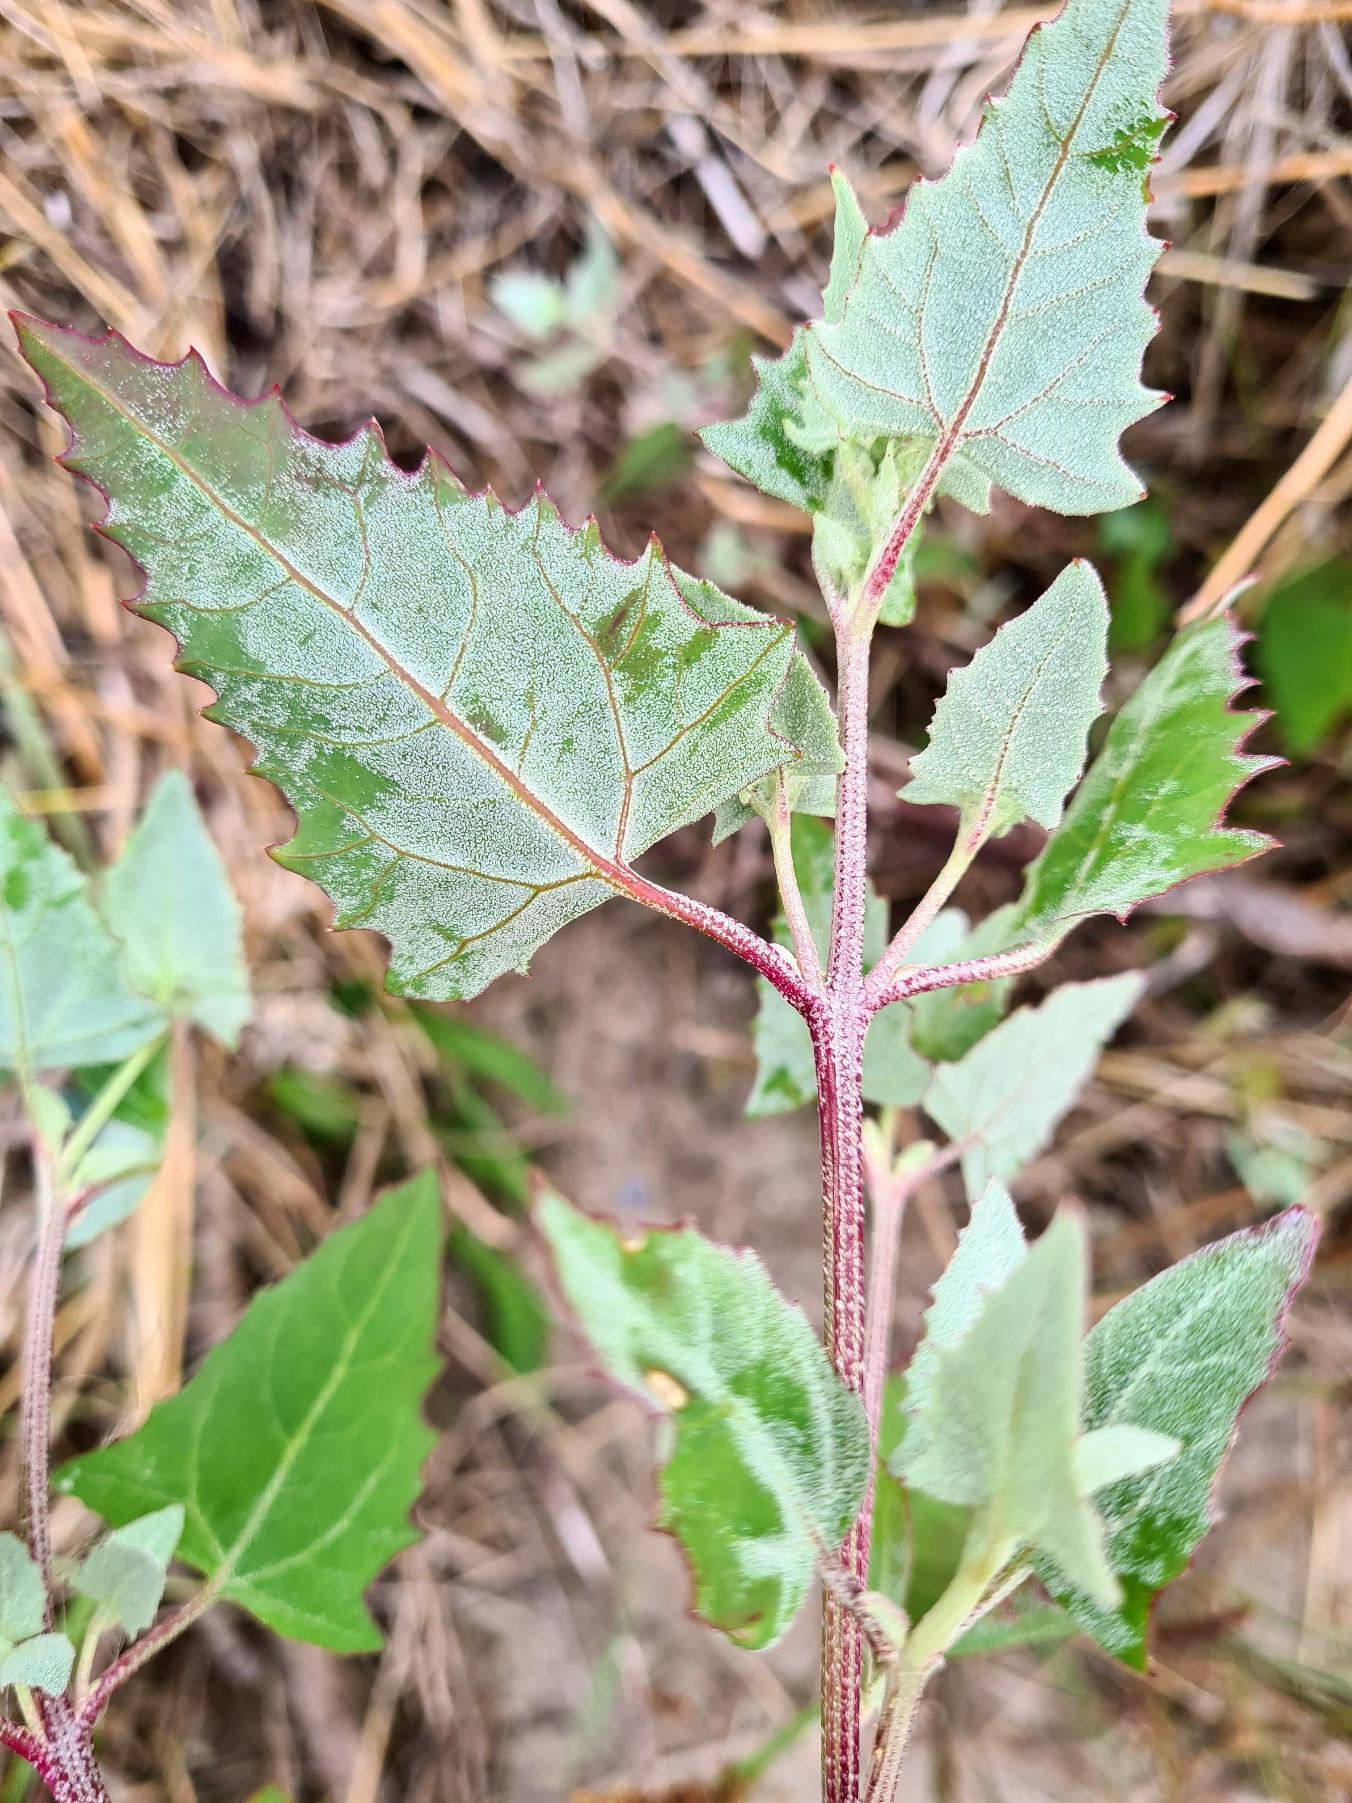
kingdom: Plantae
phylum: Tracheophyta
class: Magnoliopsida
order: Caryophyllales
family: Amaranthaceae
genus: Atriplex
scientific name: Atriplex prostrata
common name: Spyd-mælde
